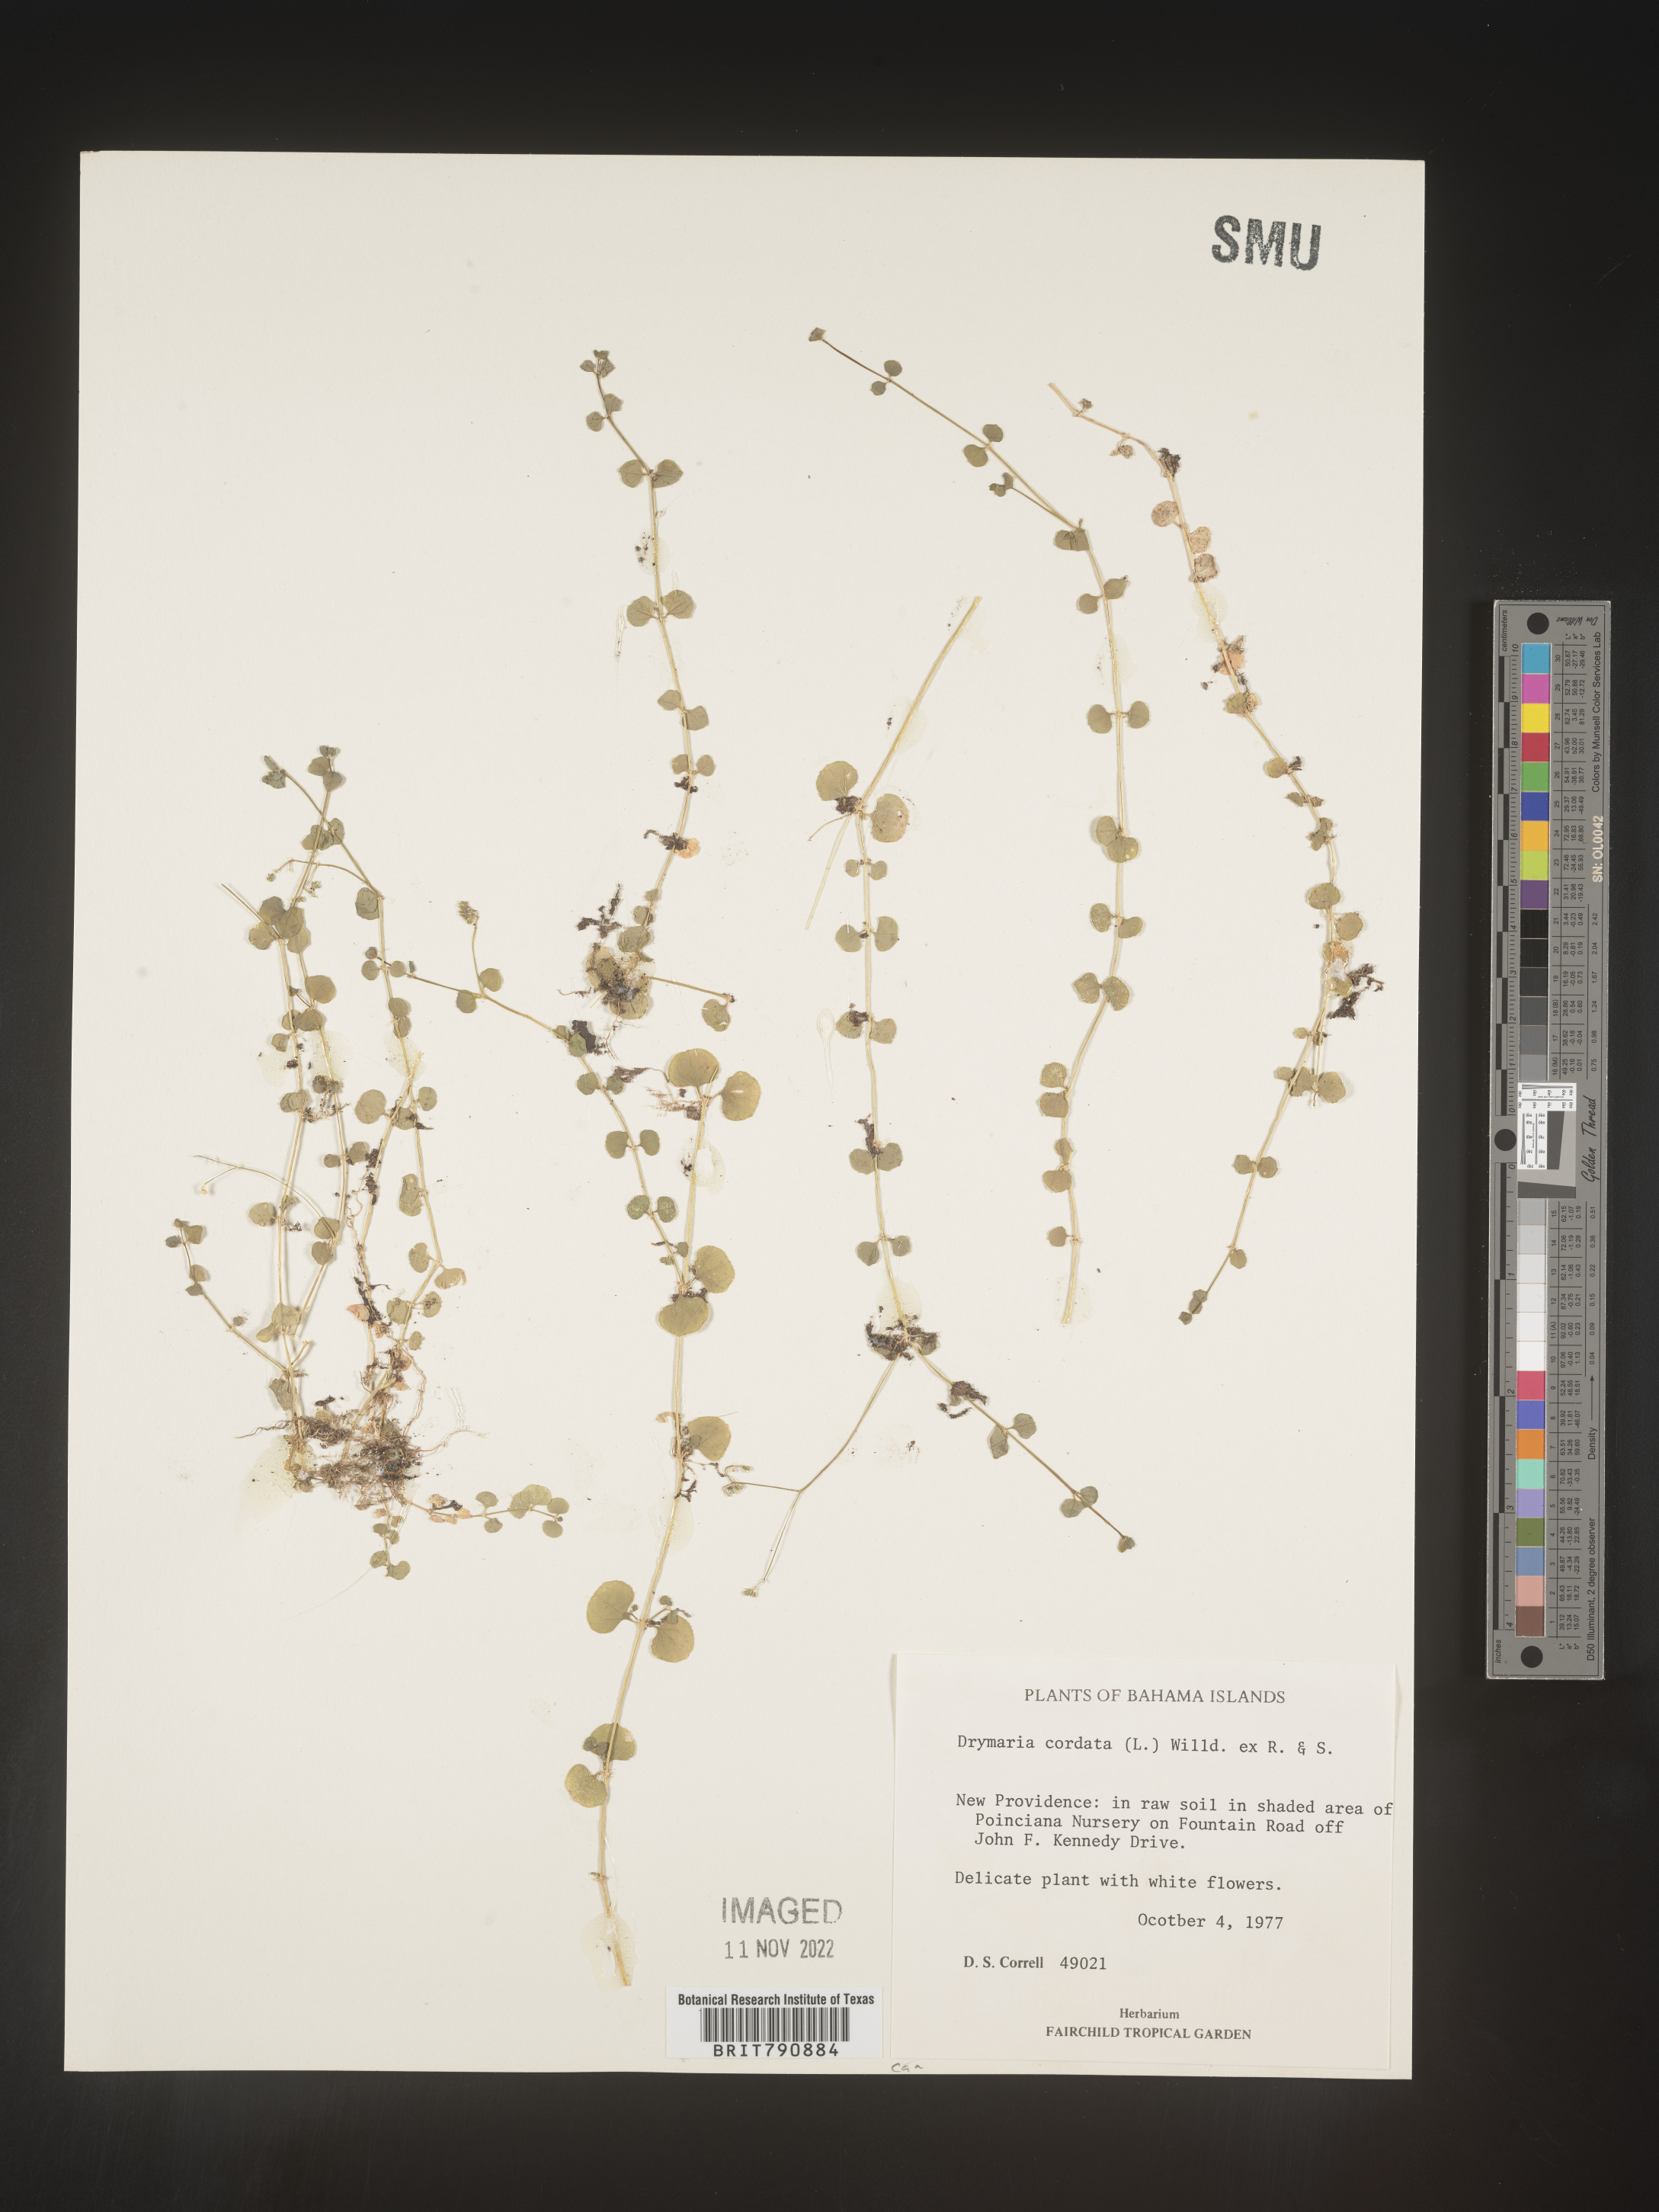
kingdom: Plantae
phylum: Tracheophyta
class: Magnoliopsida
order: Caryophyllales
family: Caryophyllaceae
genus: Drymaria
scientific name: Drymaria
